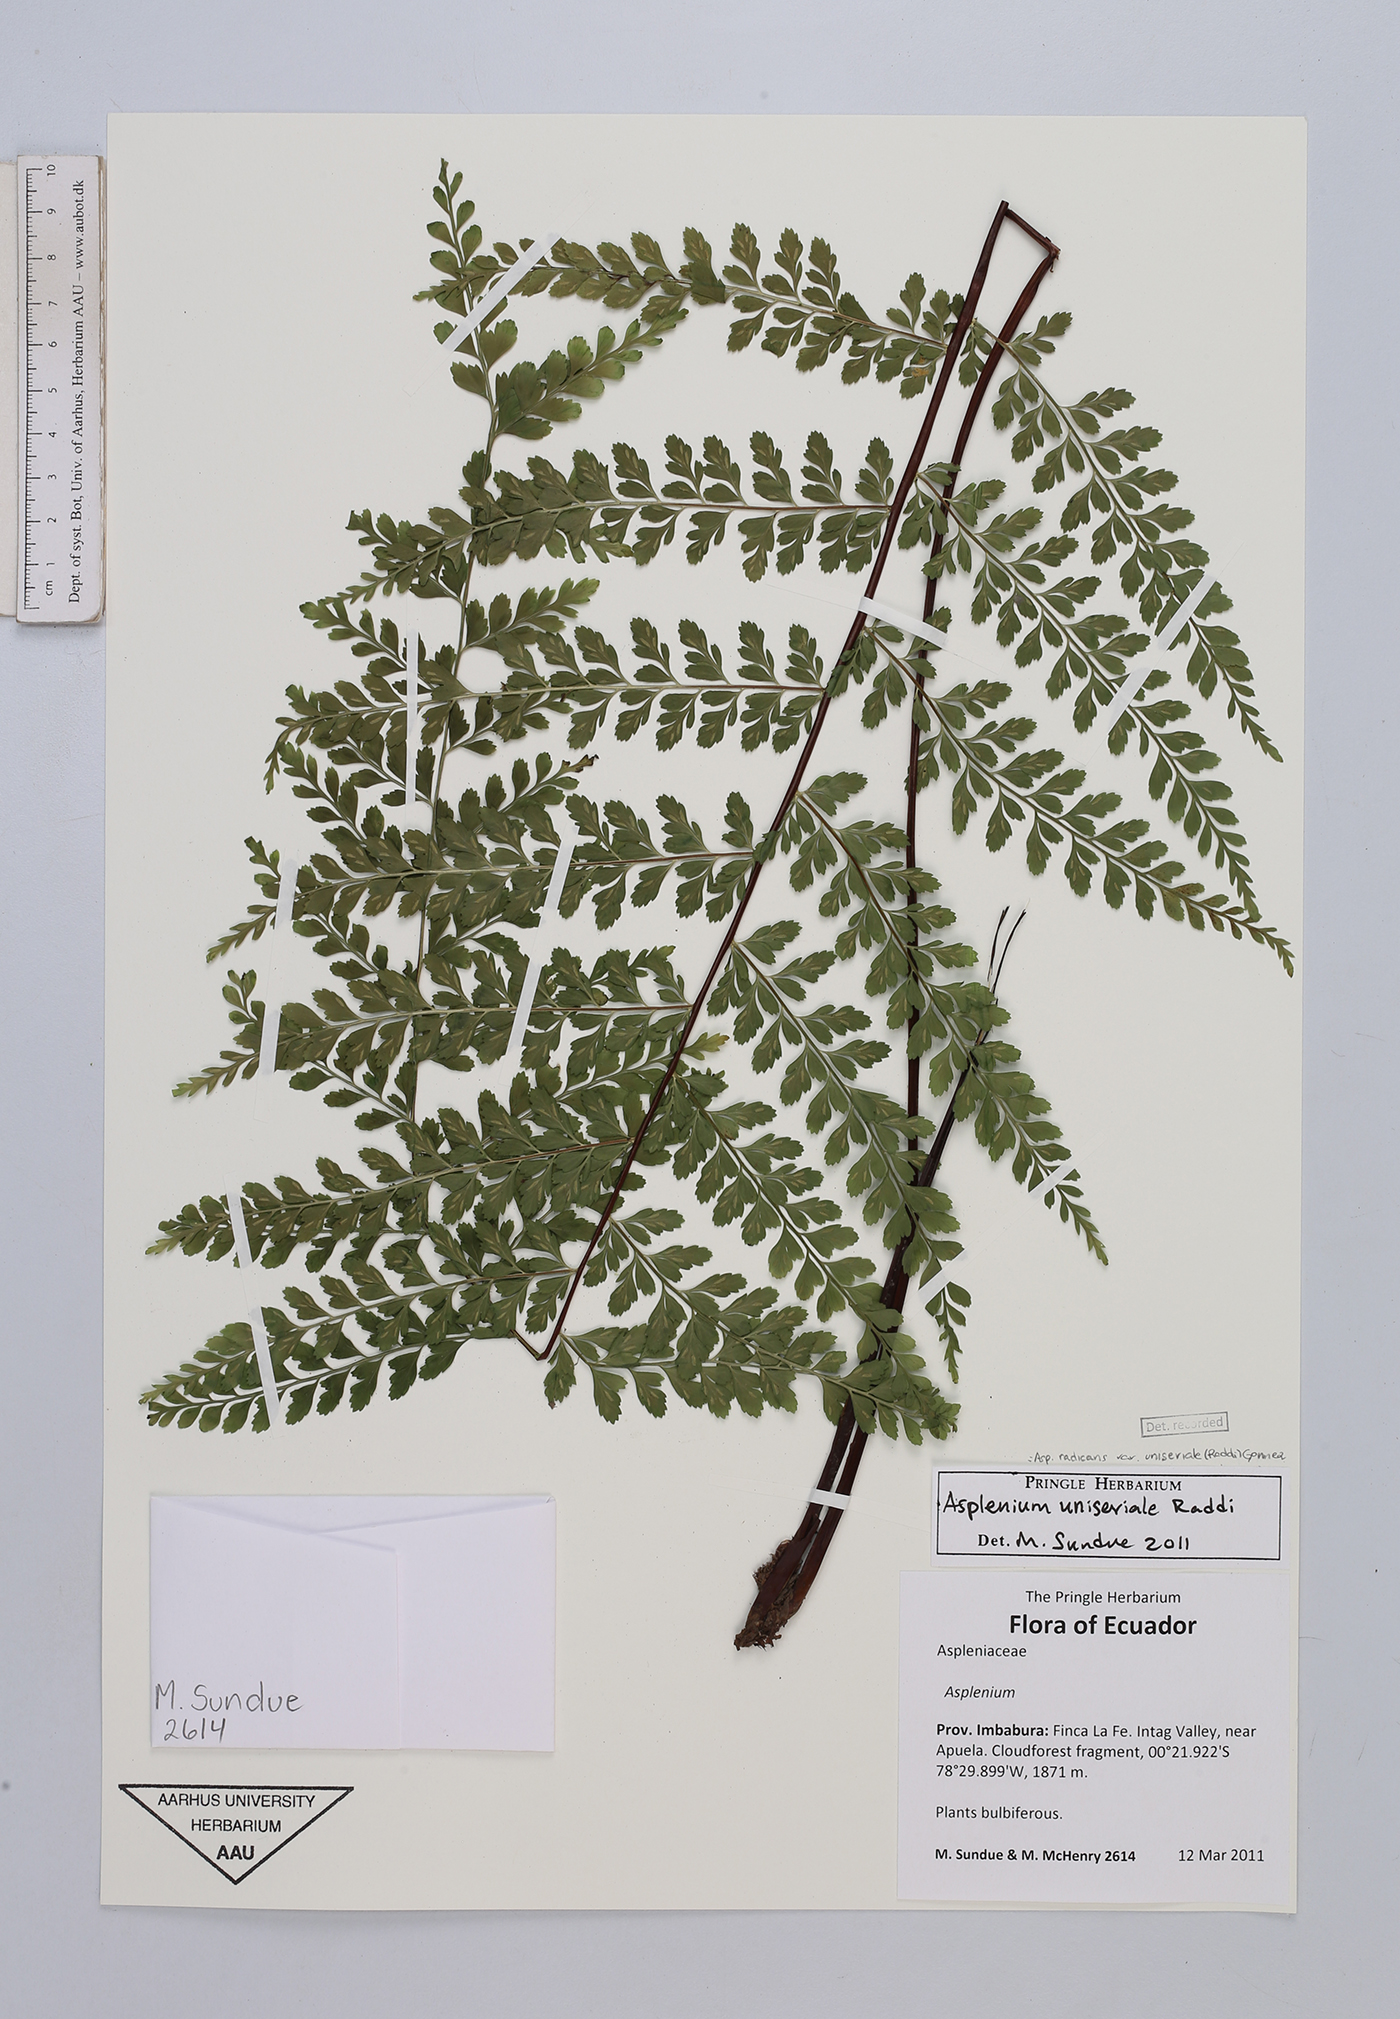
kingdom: Plantae
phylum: Tracheophyta
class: Polypodiopsida
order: Polypodiales
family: Aspleniaceae
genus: Asplenium
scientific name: Asplenium uniseriale
